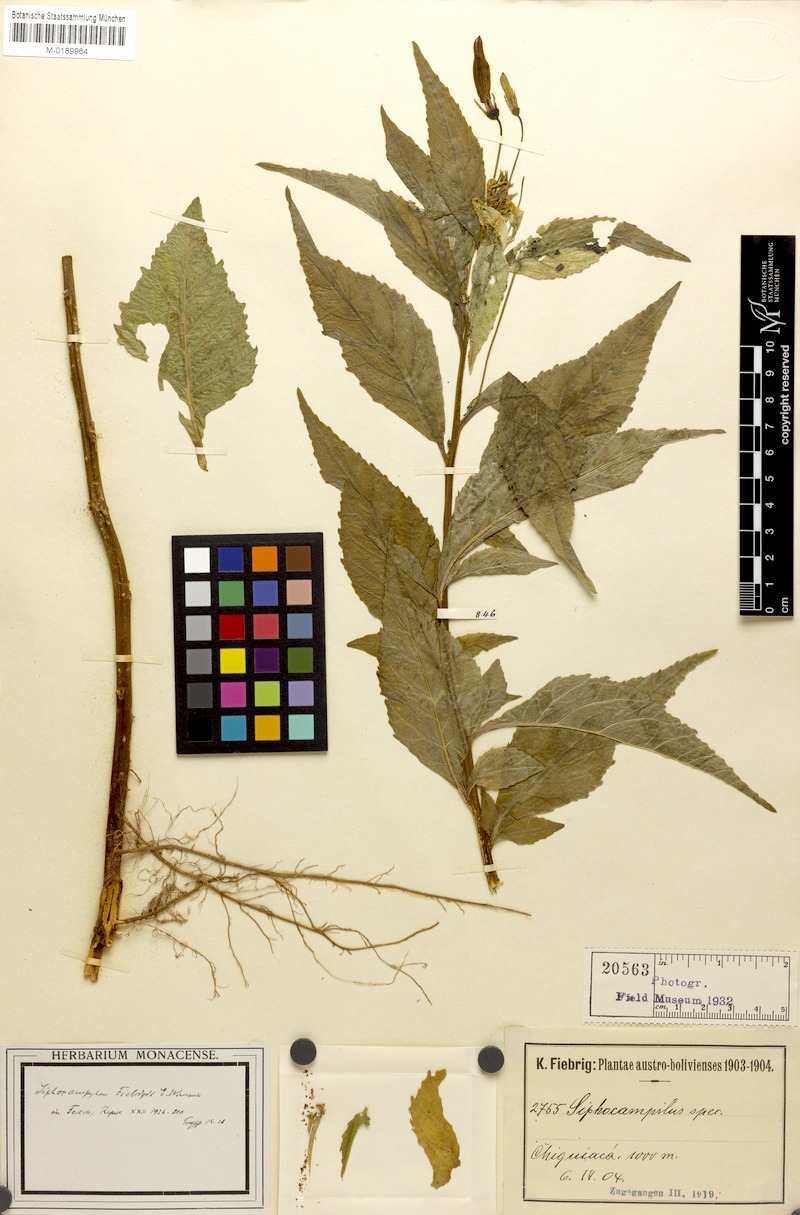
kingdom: Plantae
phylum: Tracheophyta
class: Magnoliopsida
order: Asterales
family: Campanulaceae
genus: Siphocampylus
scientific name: Siphocampylus fiebrigii
